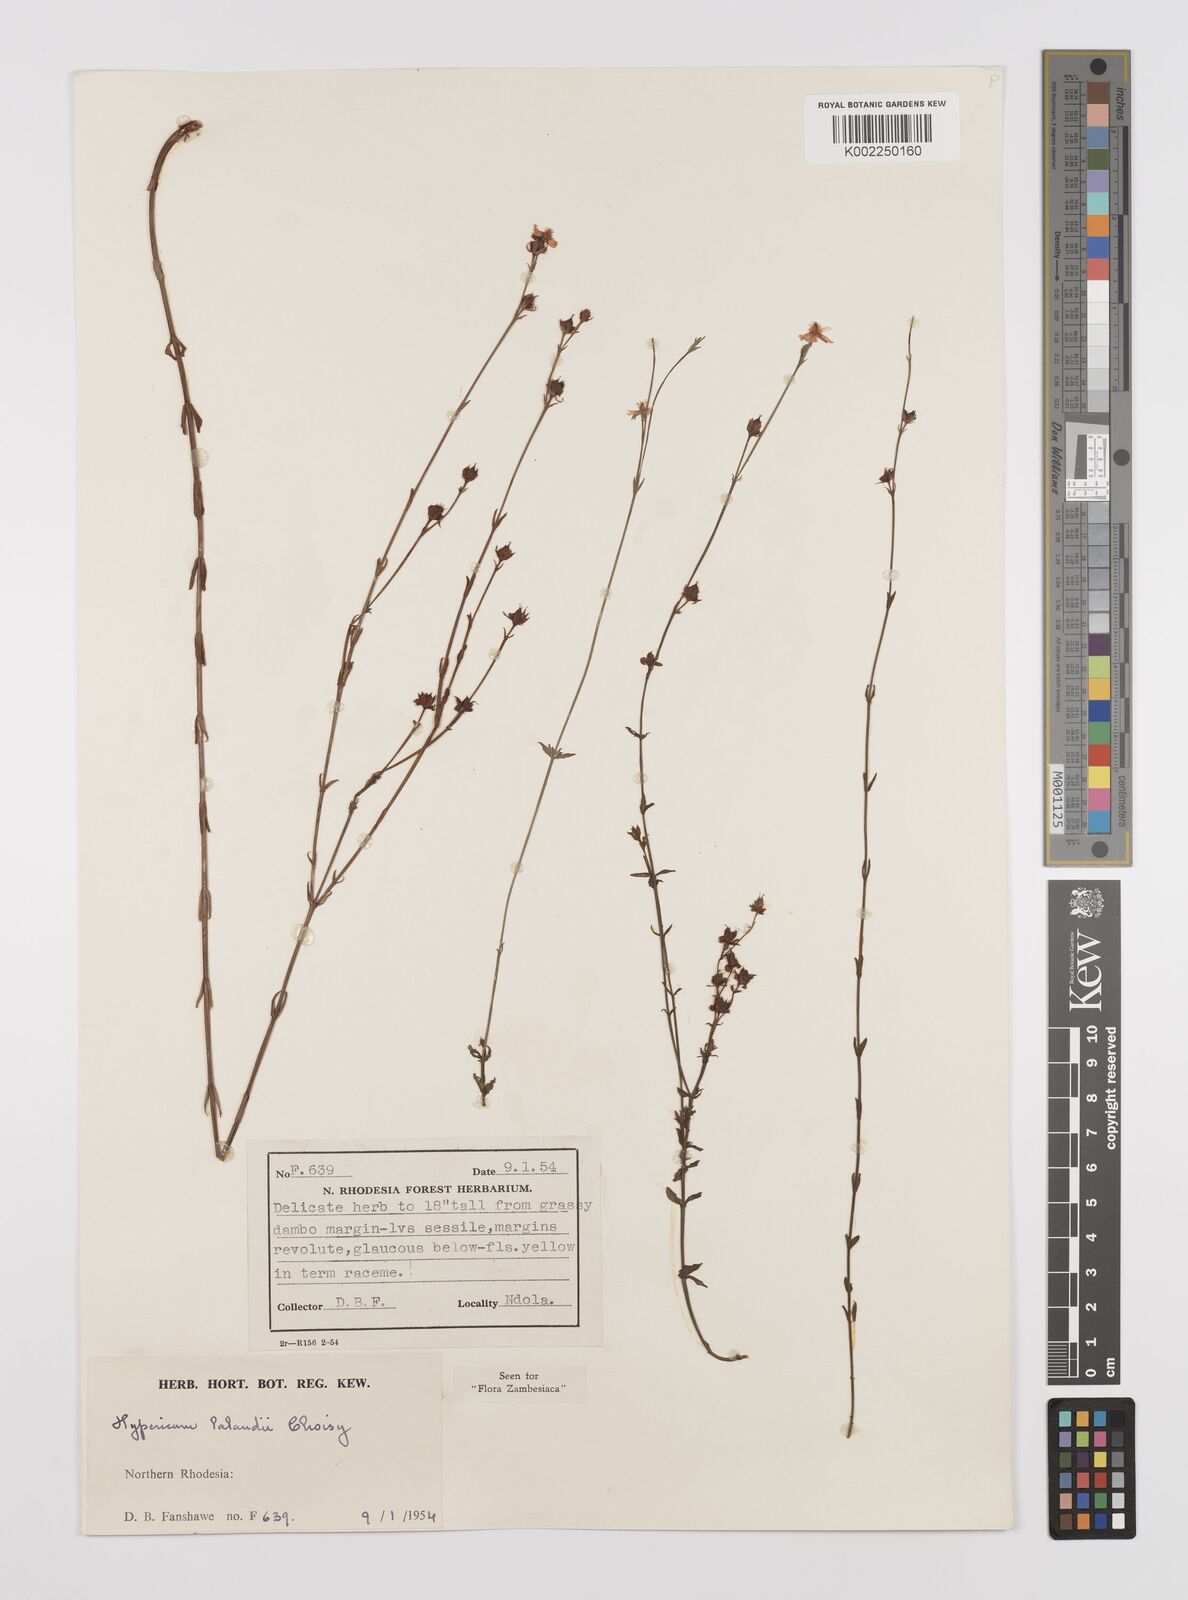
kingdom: Plantae
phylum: Tracheophyta
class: Magnoliopsida
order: Malpighiales
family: Hypericaceae
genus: Hypericum
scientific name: Hypericum lalandii
